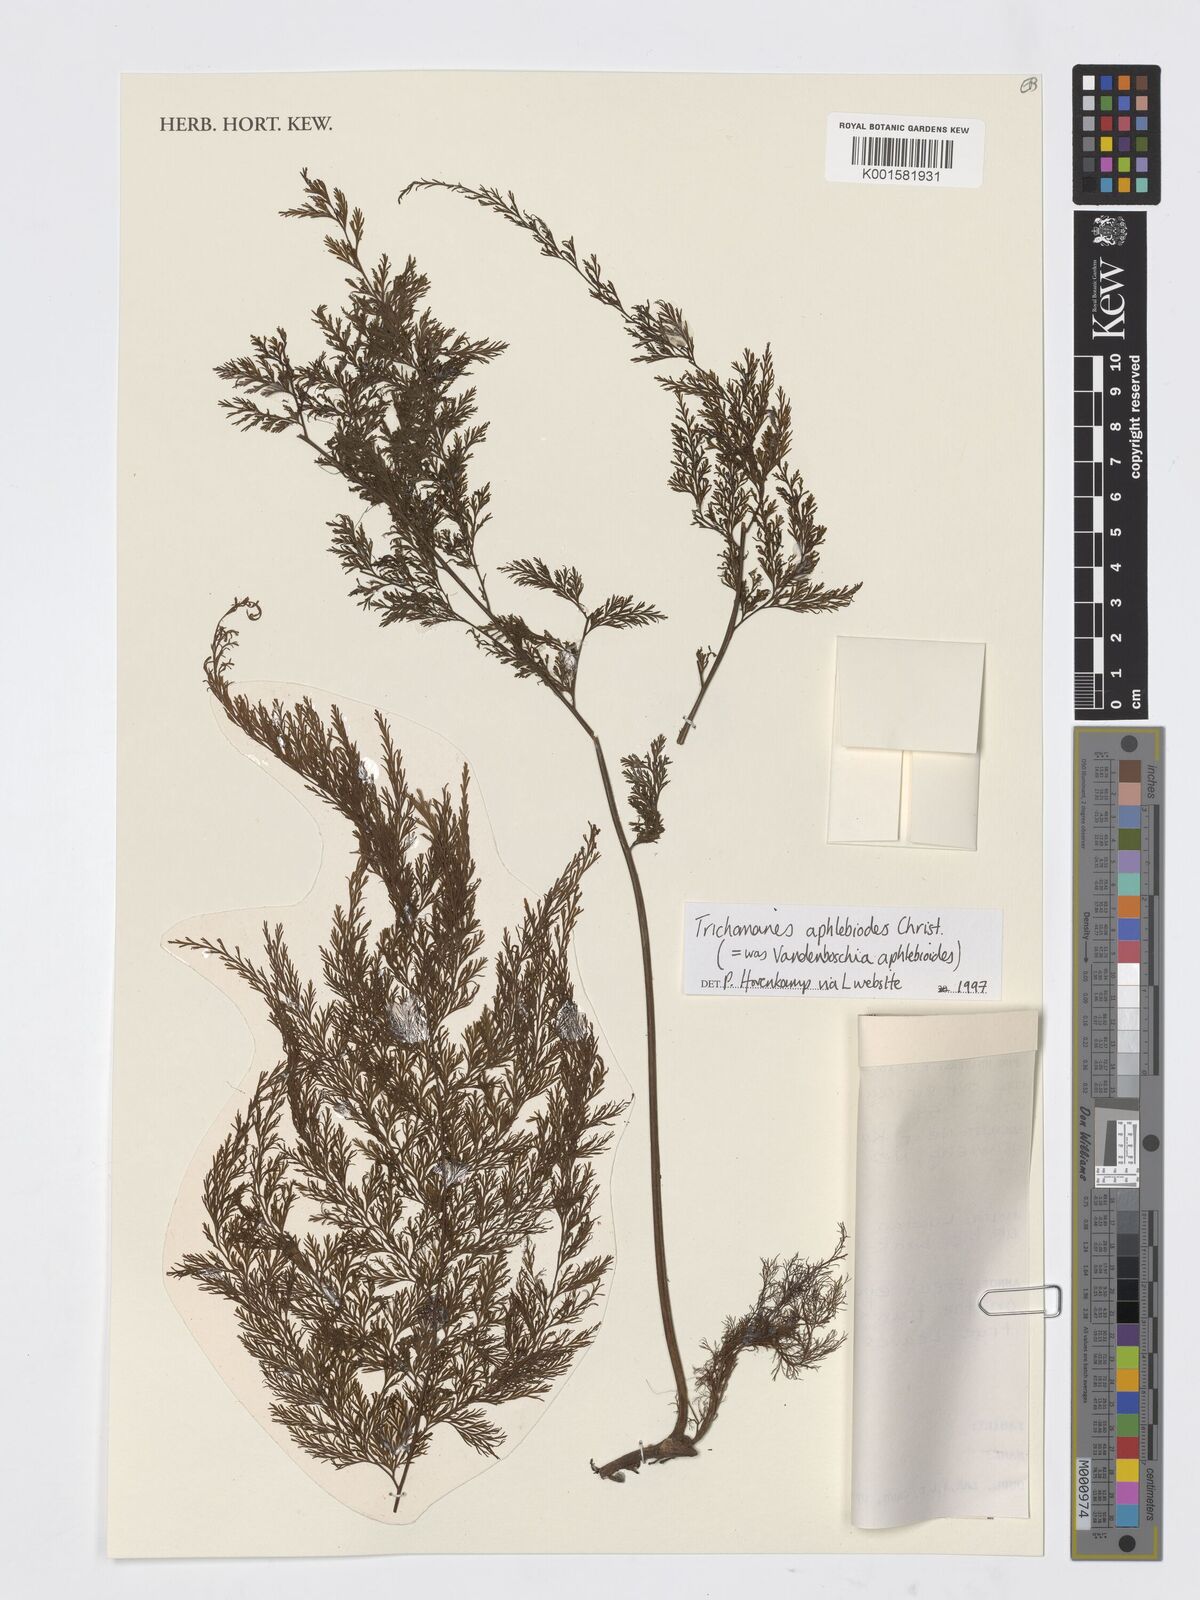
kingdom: Plantae
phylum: Tracheophyta
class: Polypodiopsida
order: Hymenophyllales
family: Hymenophyllaceae
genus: Crepidomanes
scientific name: Crepidomanes aphlebioides
